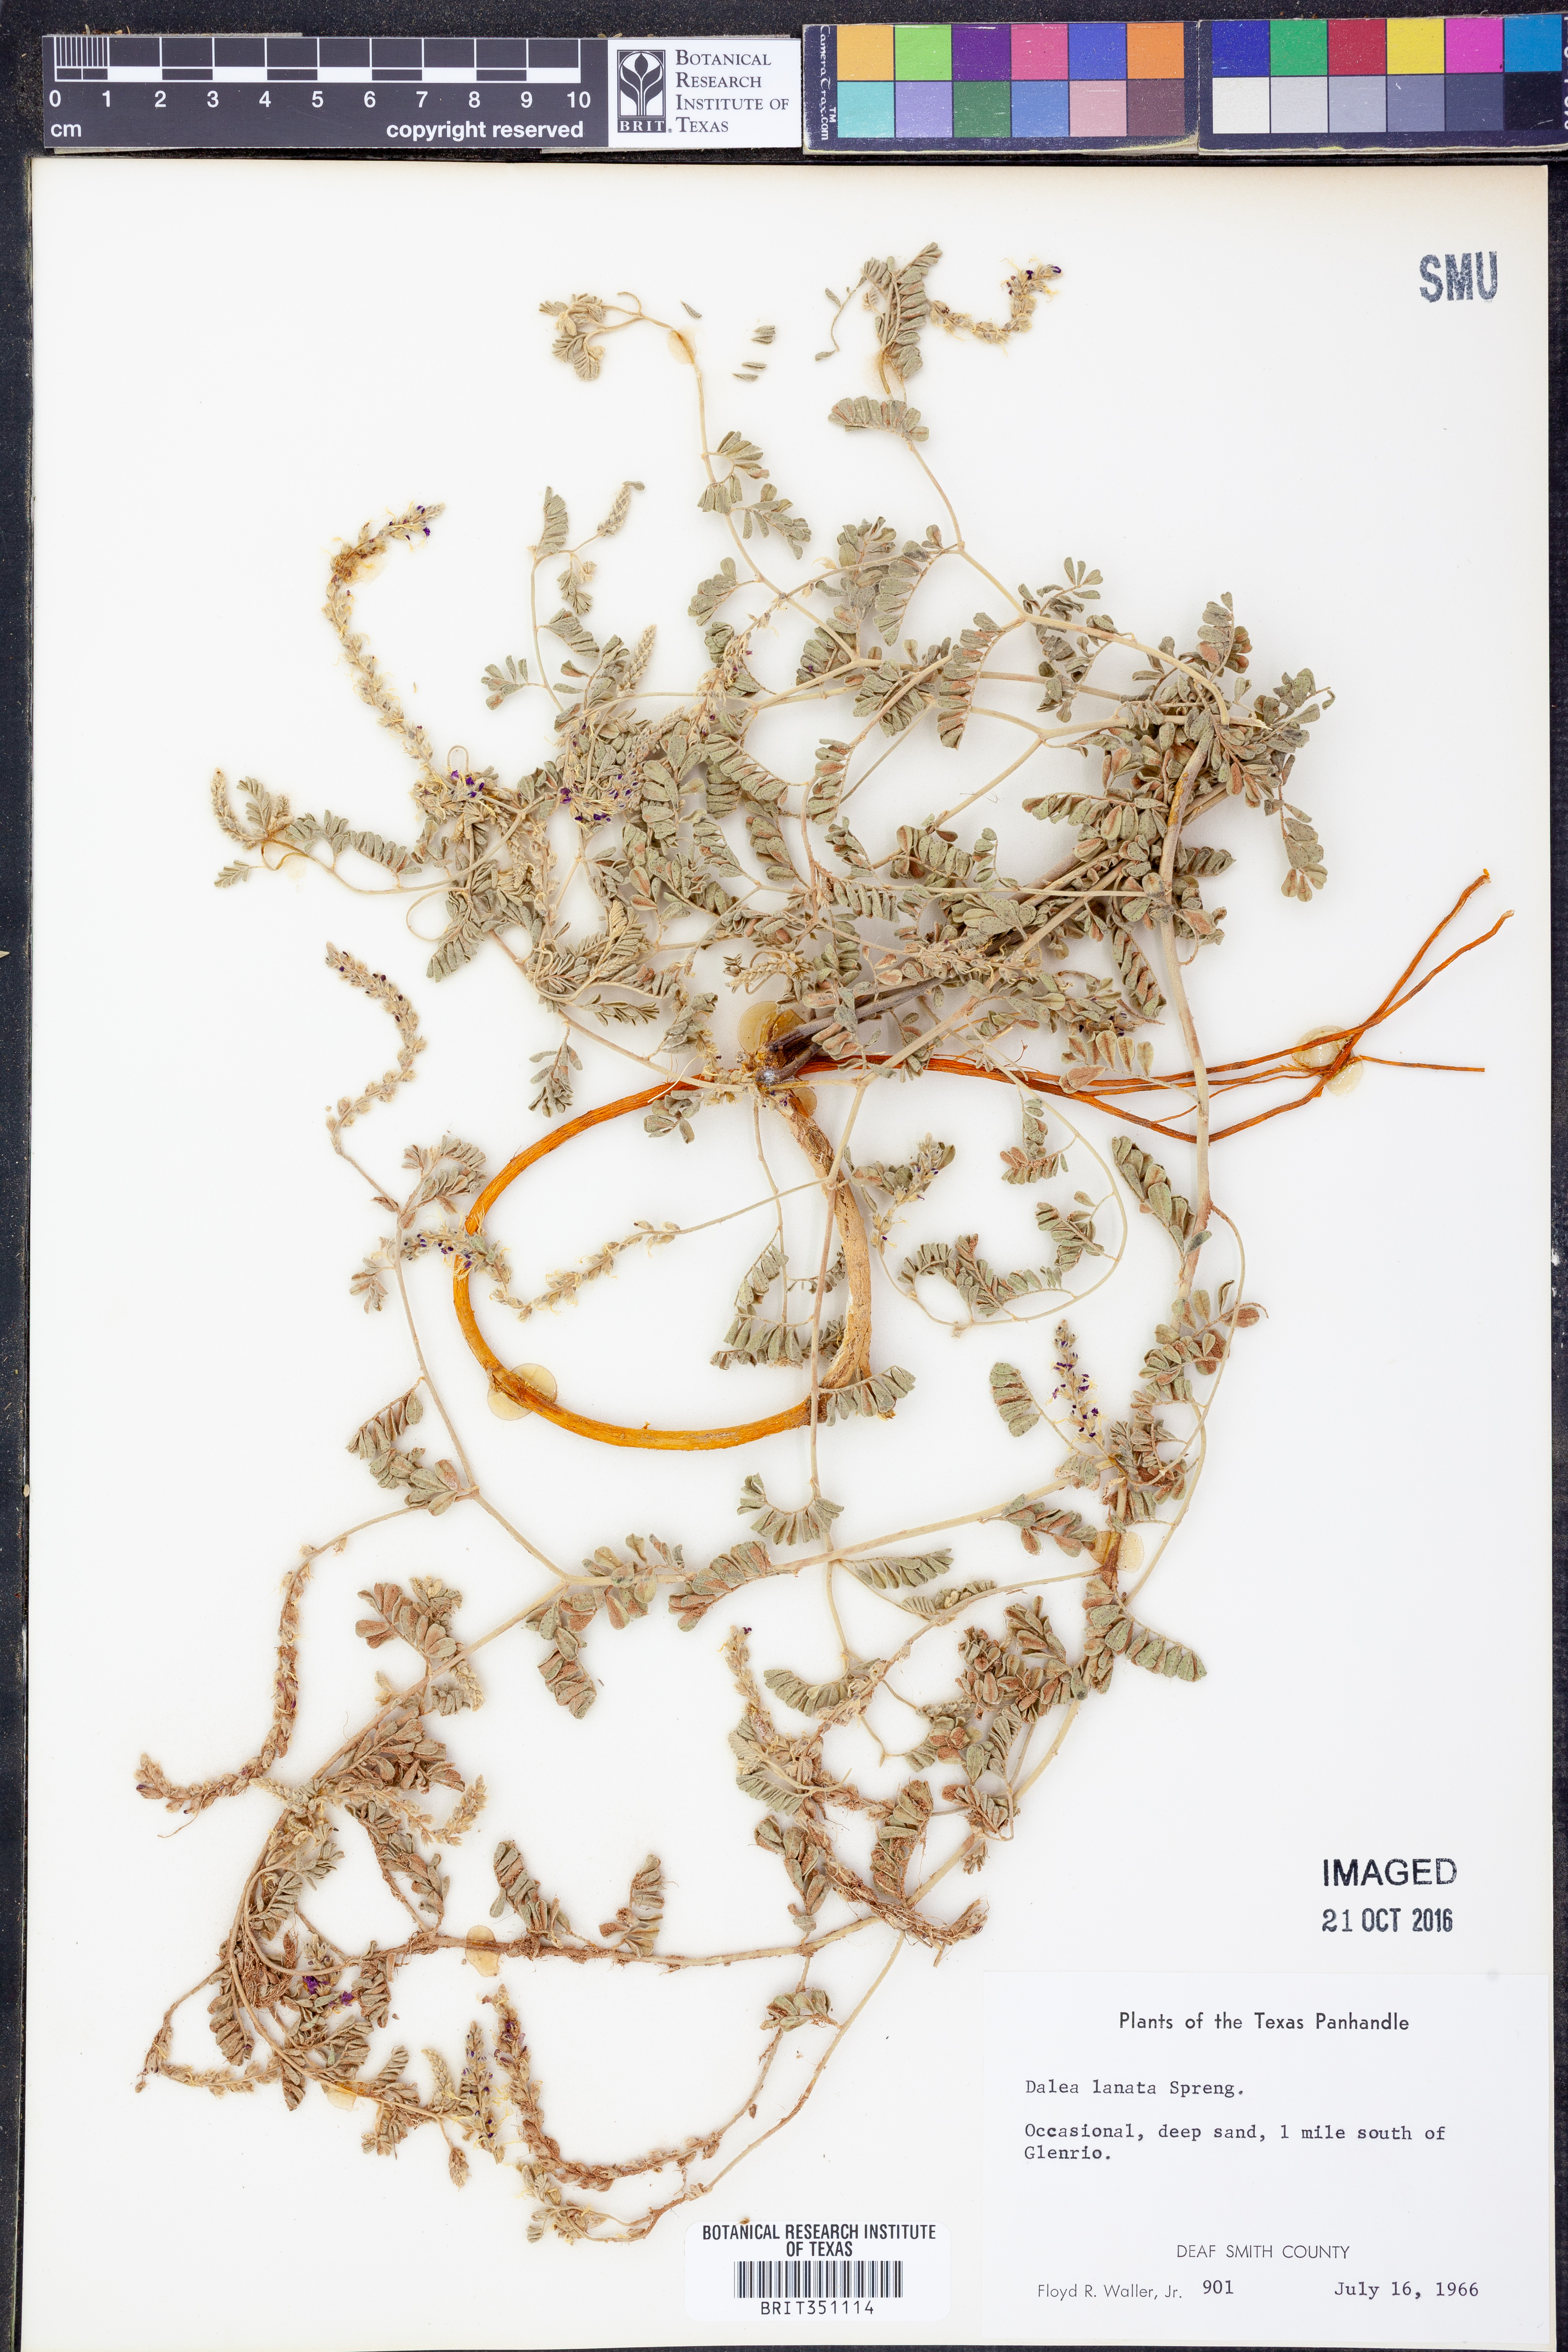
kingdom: Plantae
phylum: Tracheophyta
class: Magnoliopsida
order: Fabales
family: Fabaceae
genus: Dalea
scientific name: Dalea lanata
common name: Woolly dalea
